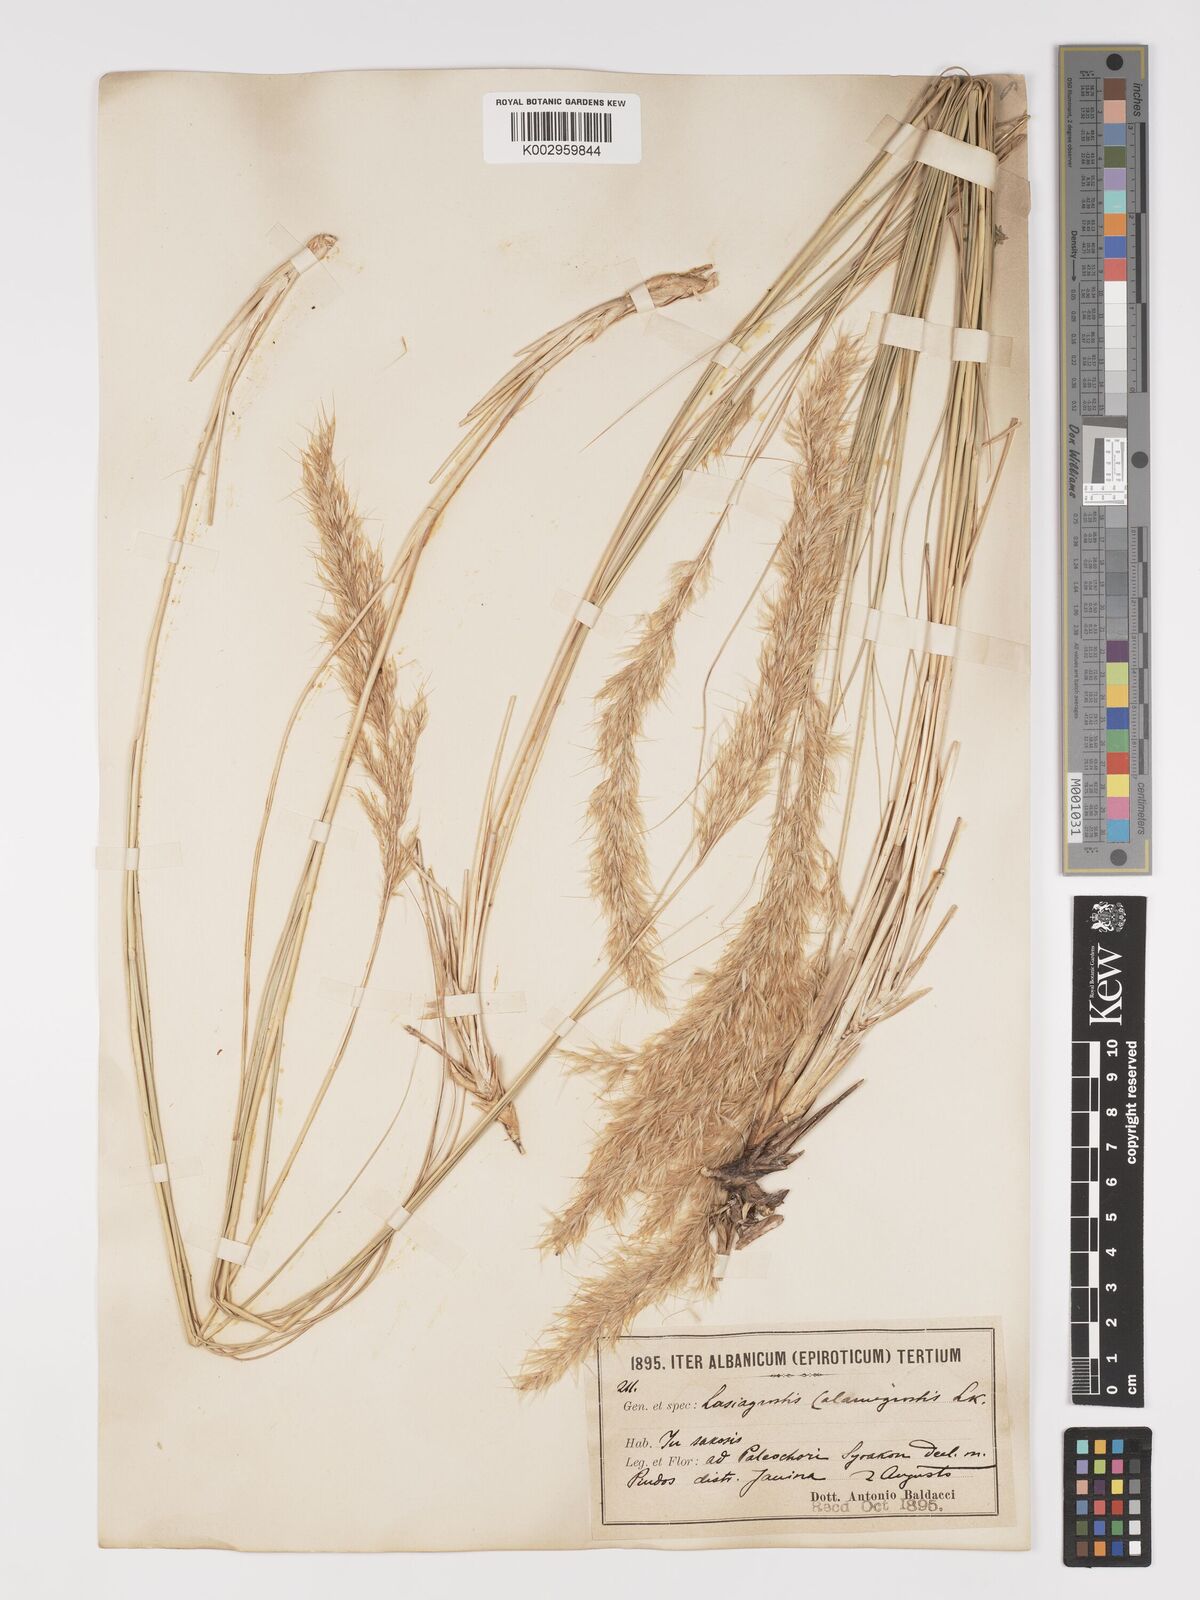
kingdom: Plantae
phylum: Tracheophyta
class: Liliopsida
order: Poales
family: Poaceae
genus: Achnatherum
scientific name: Achnatherum calamagrostis
